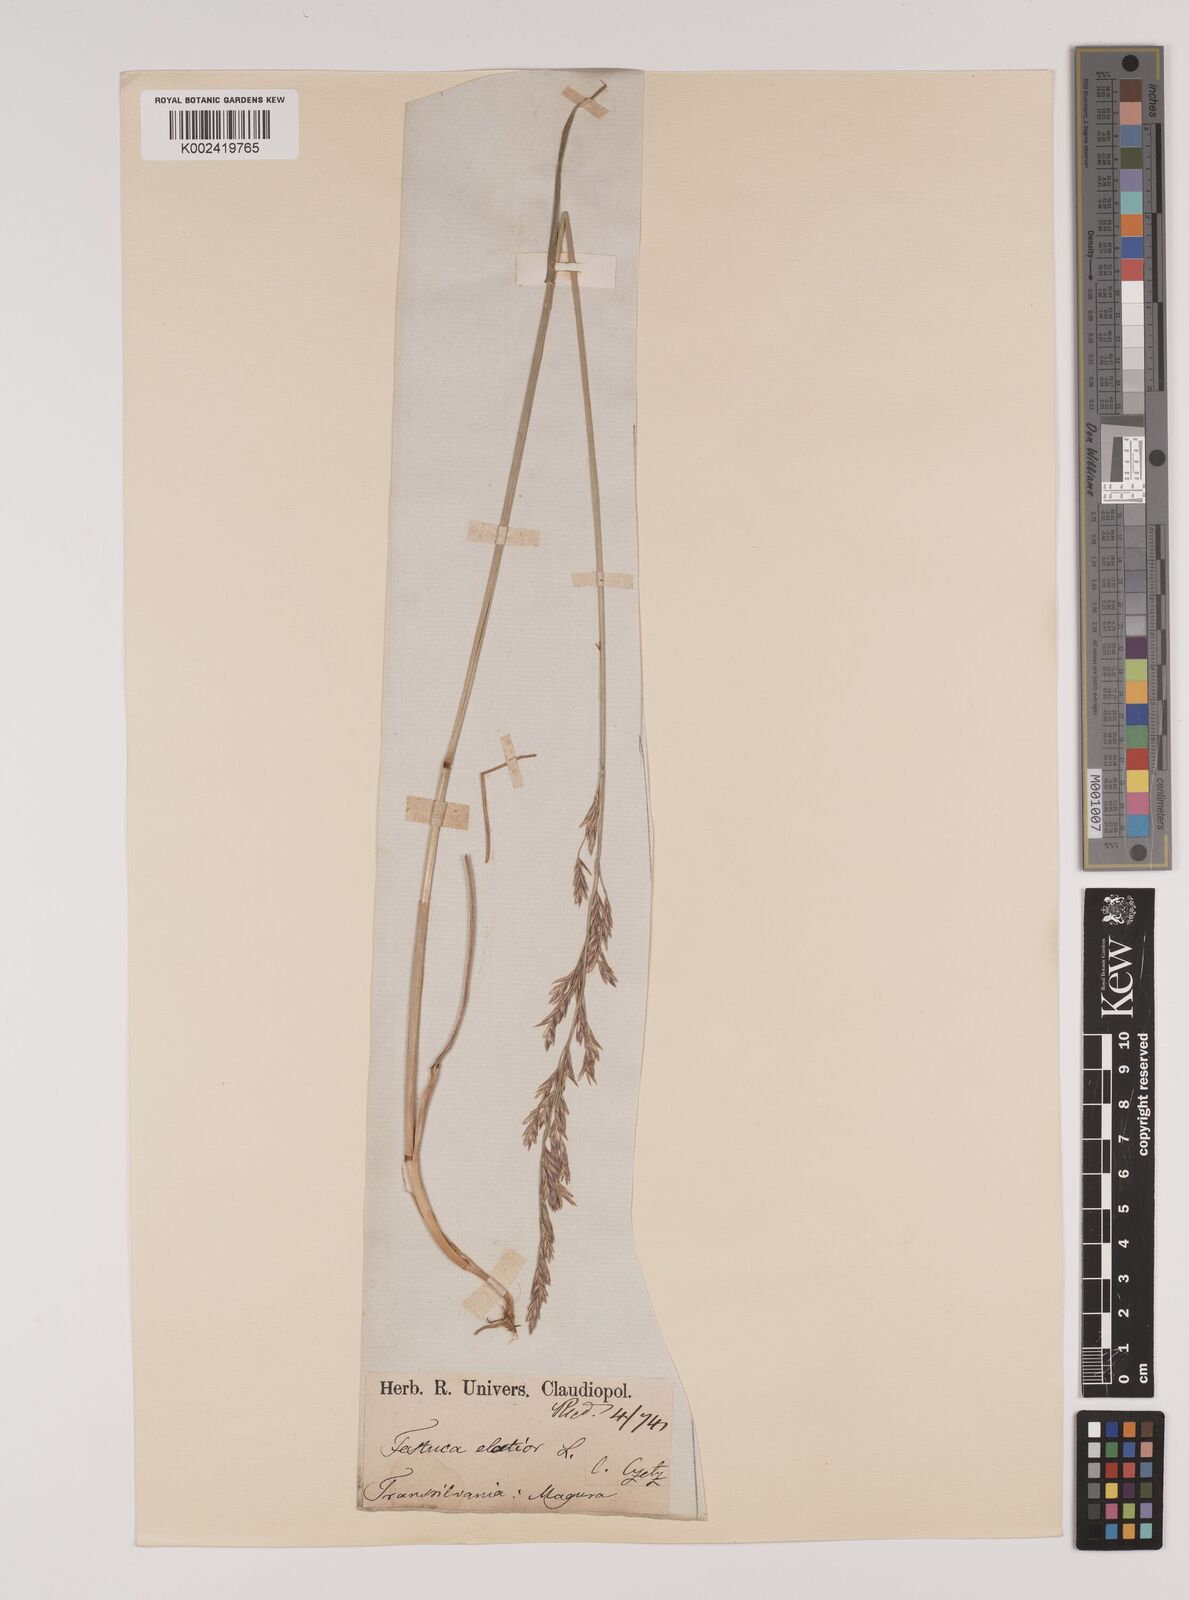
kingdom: Plantae
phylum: Tracheophyta
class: Liliopsida
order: Poales
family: Poaceae
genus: Lolium
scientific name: Lolium pratense
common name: Dover grass
